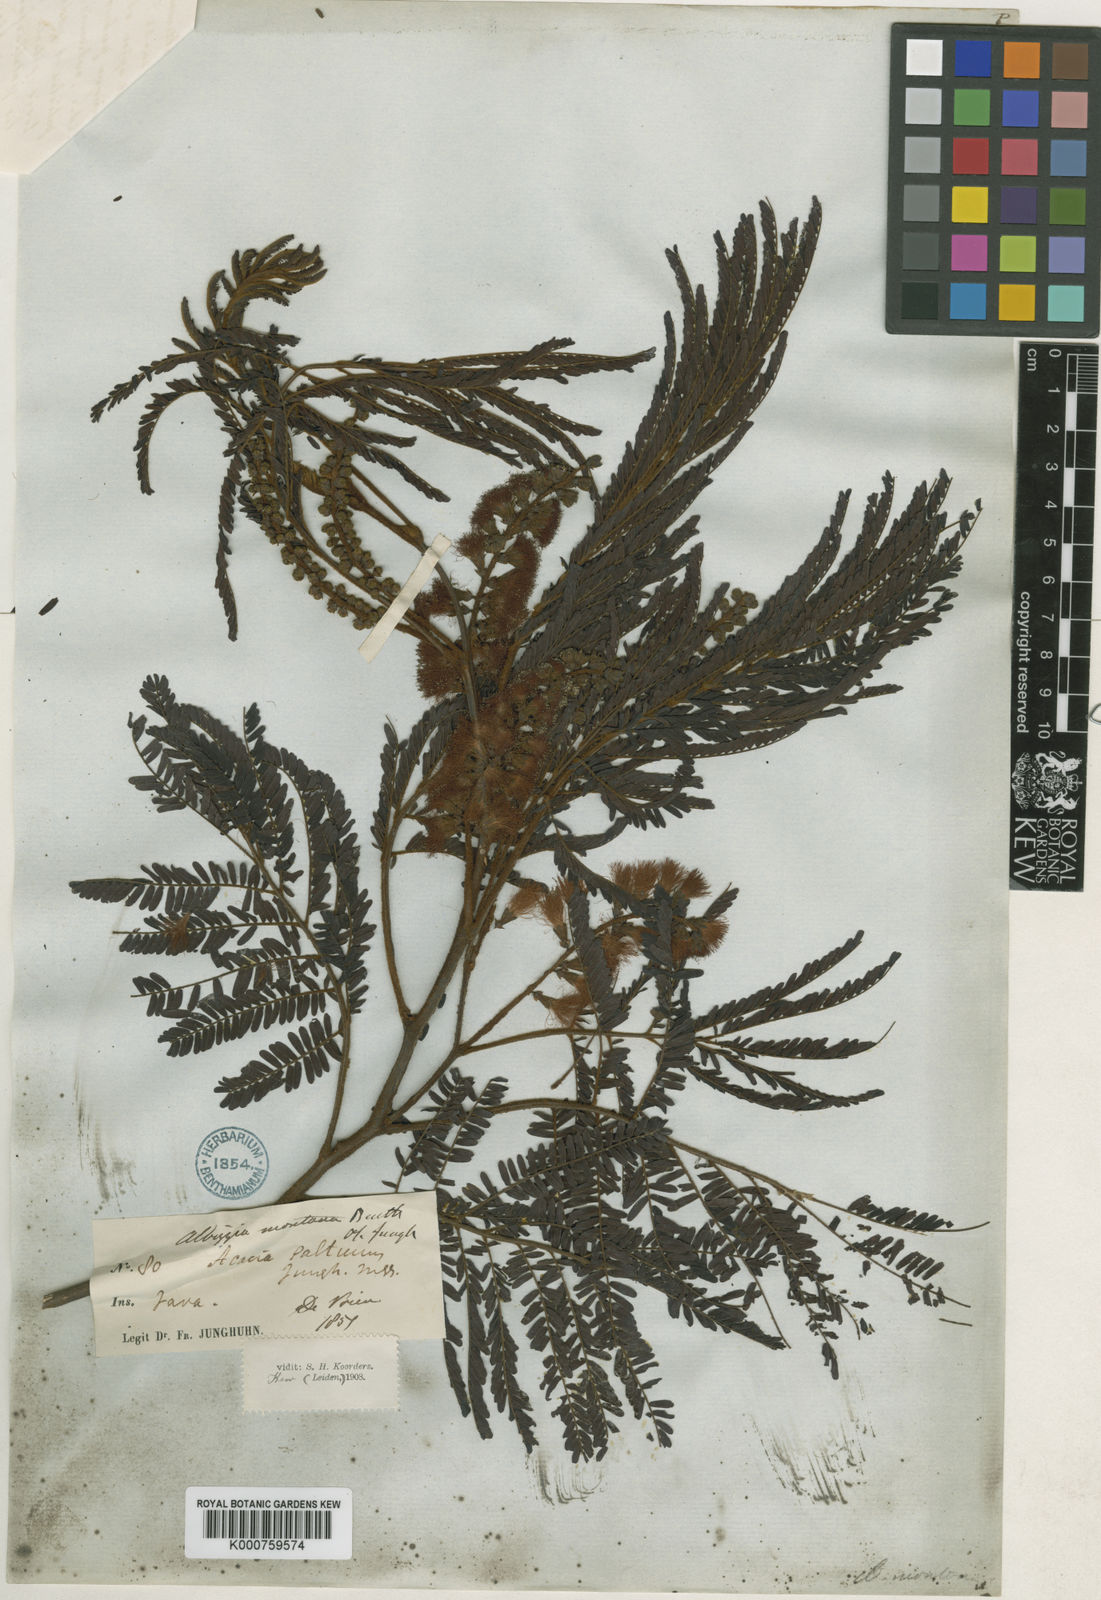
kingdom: Plantae
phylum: Tracheophyta
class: Magnoliopsida
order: Fabales
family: Fabaceae
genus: Paraserianthes
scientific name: Paraserianthes lophantha
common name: Plume albizia
